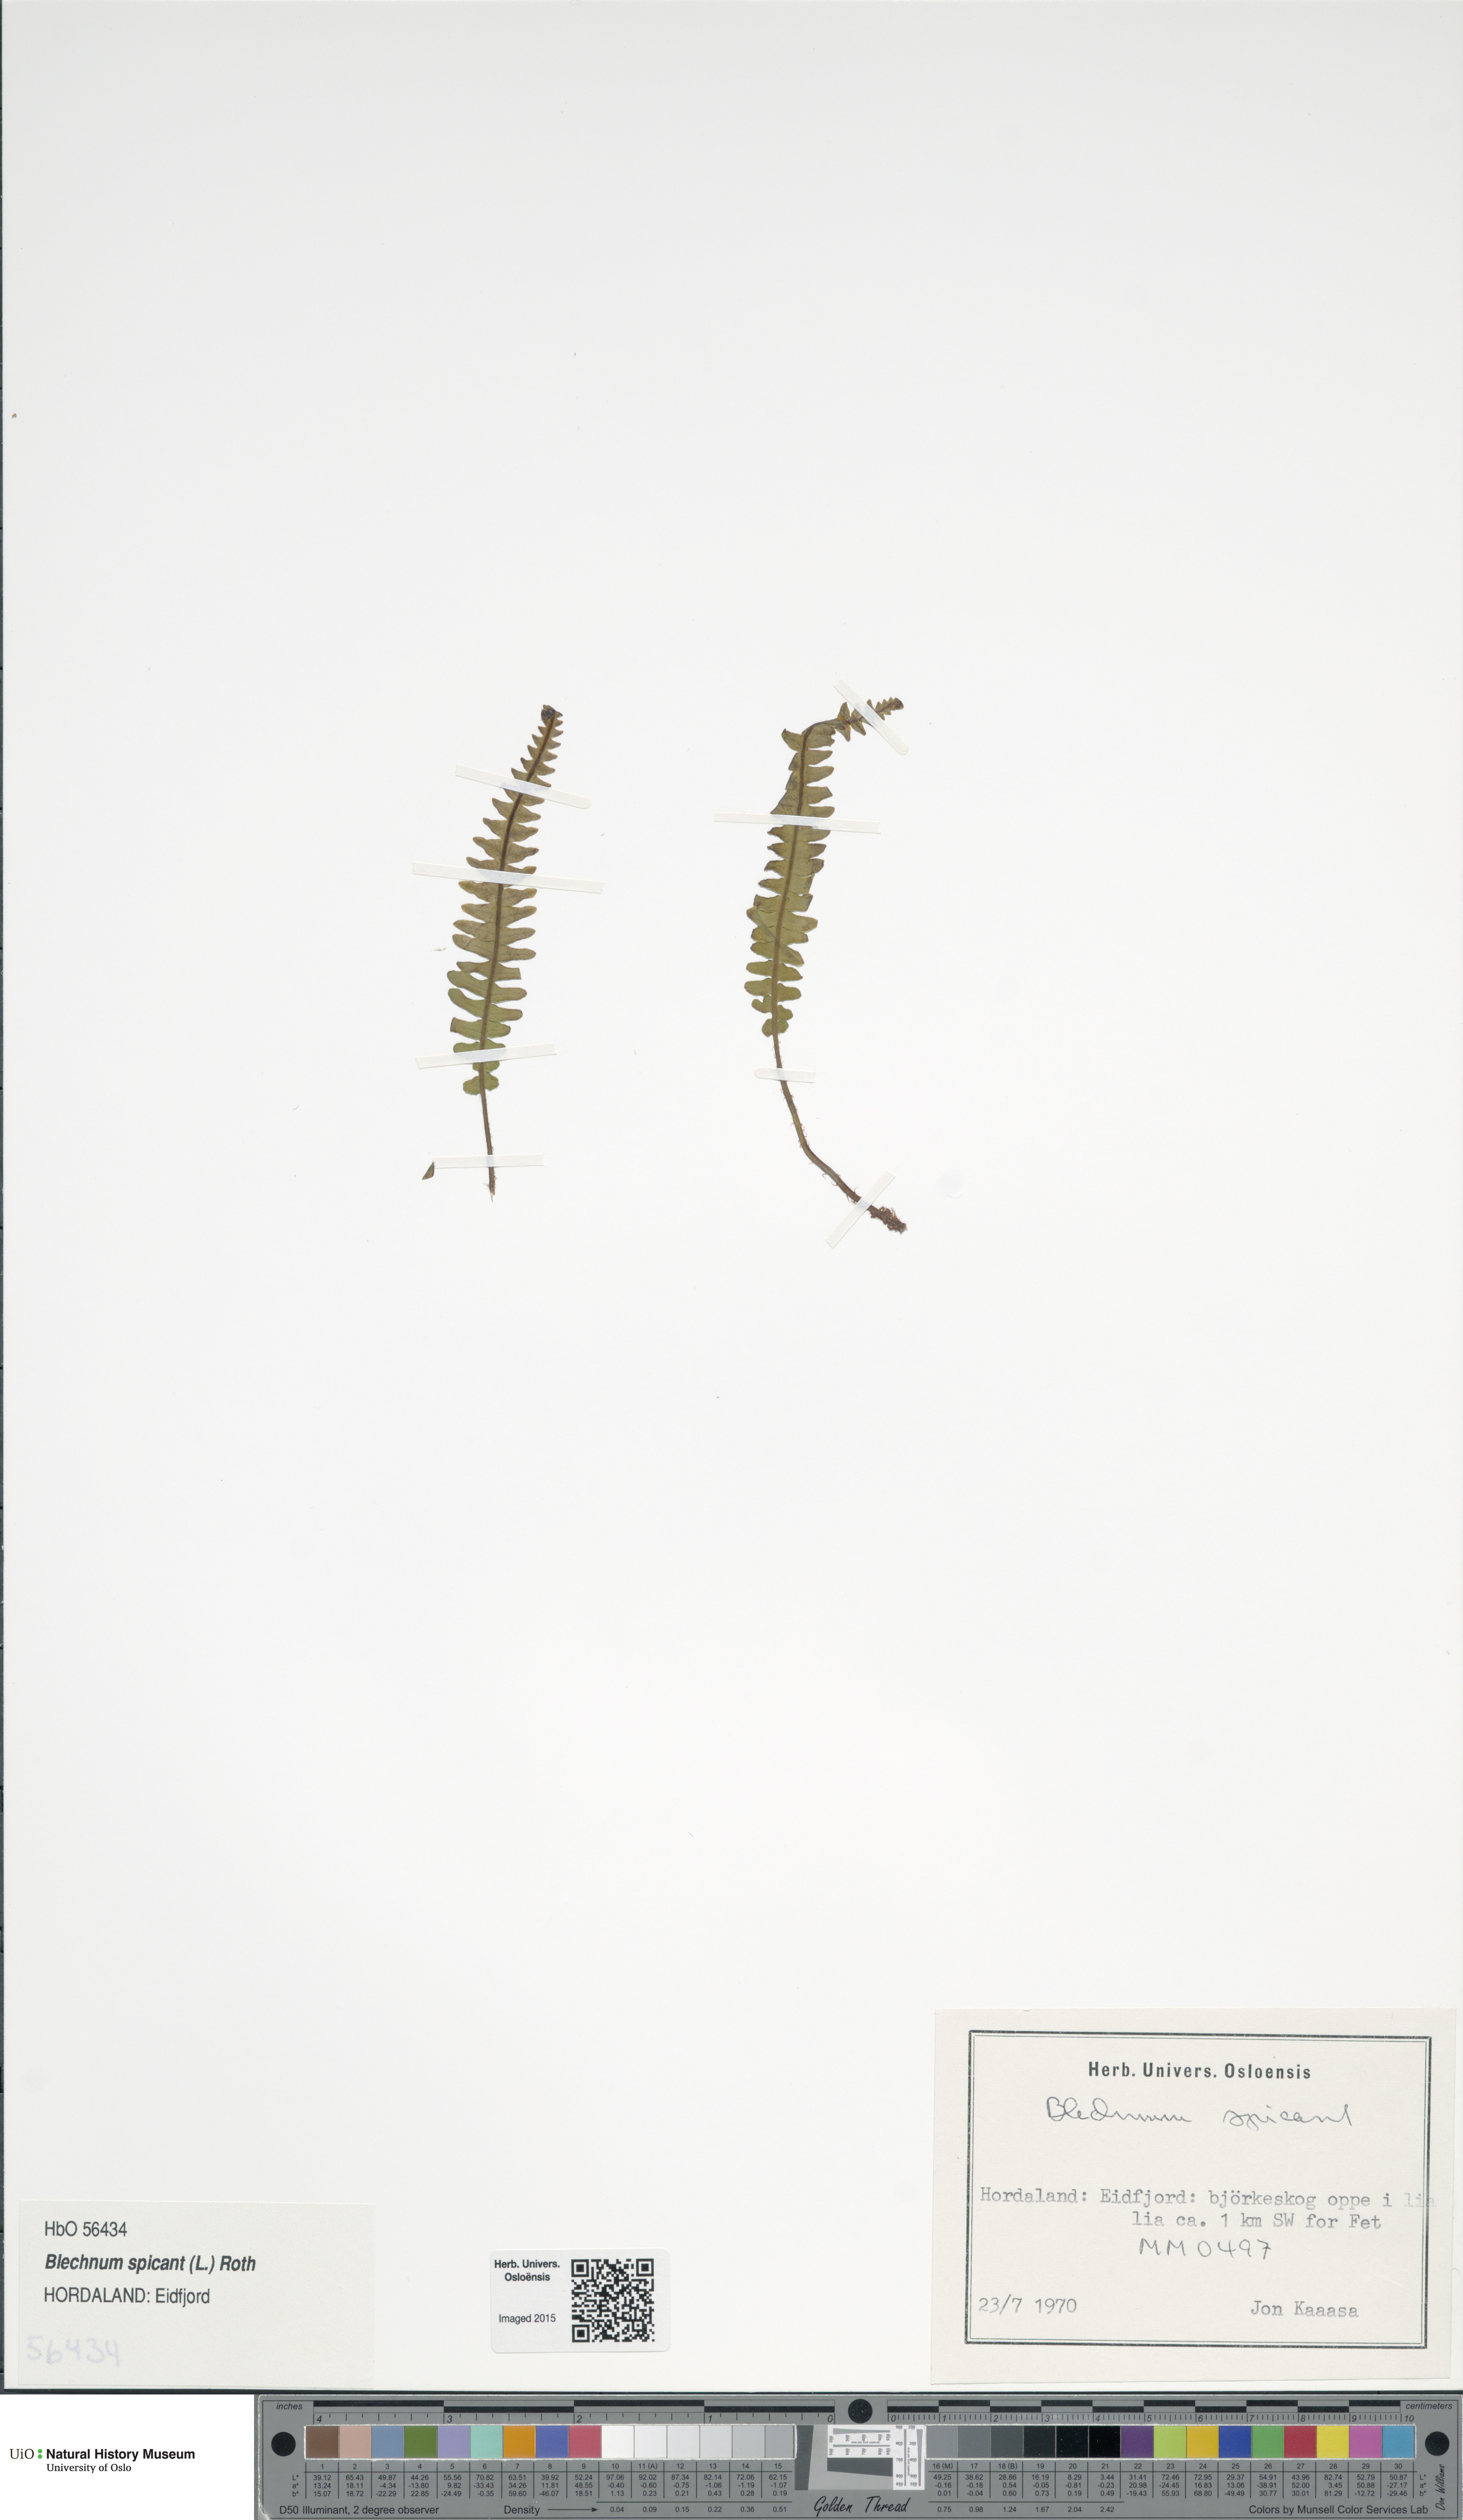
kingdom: Plantae
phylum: Tracheophyta
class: Polypodiopsida
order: Polypodiales
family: Blechnaceae
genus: Struthiopteris
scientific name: Struthiopteris spicant
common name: Deer fern
